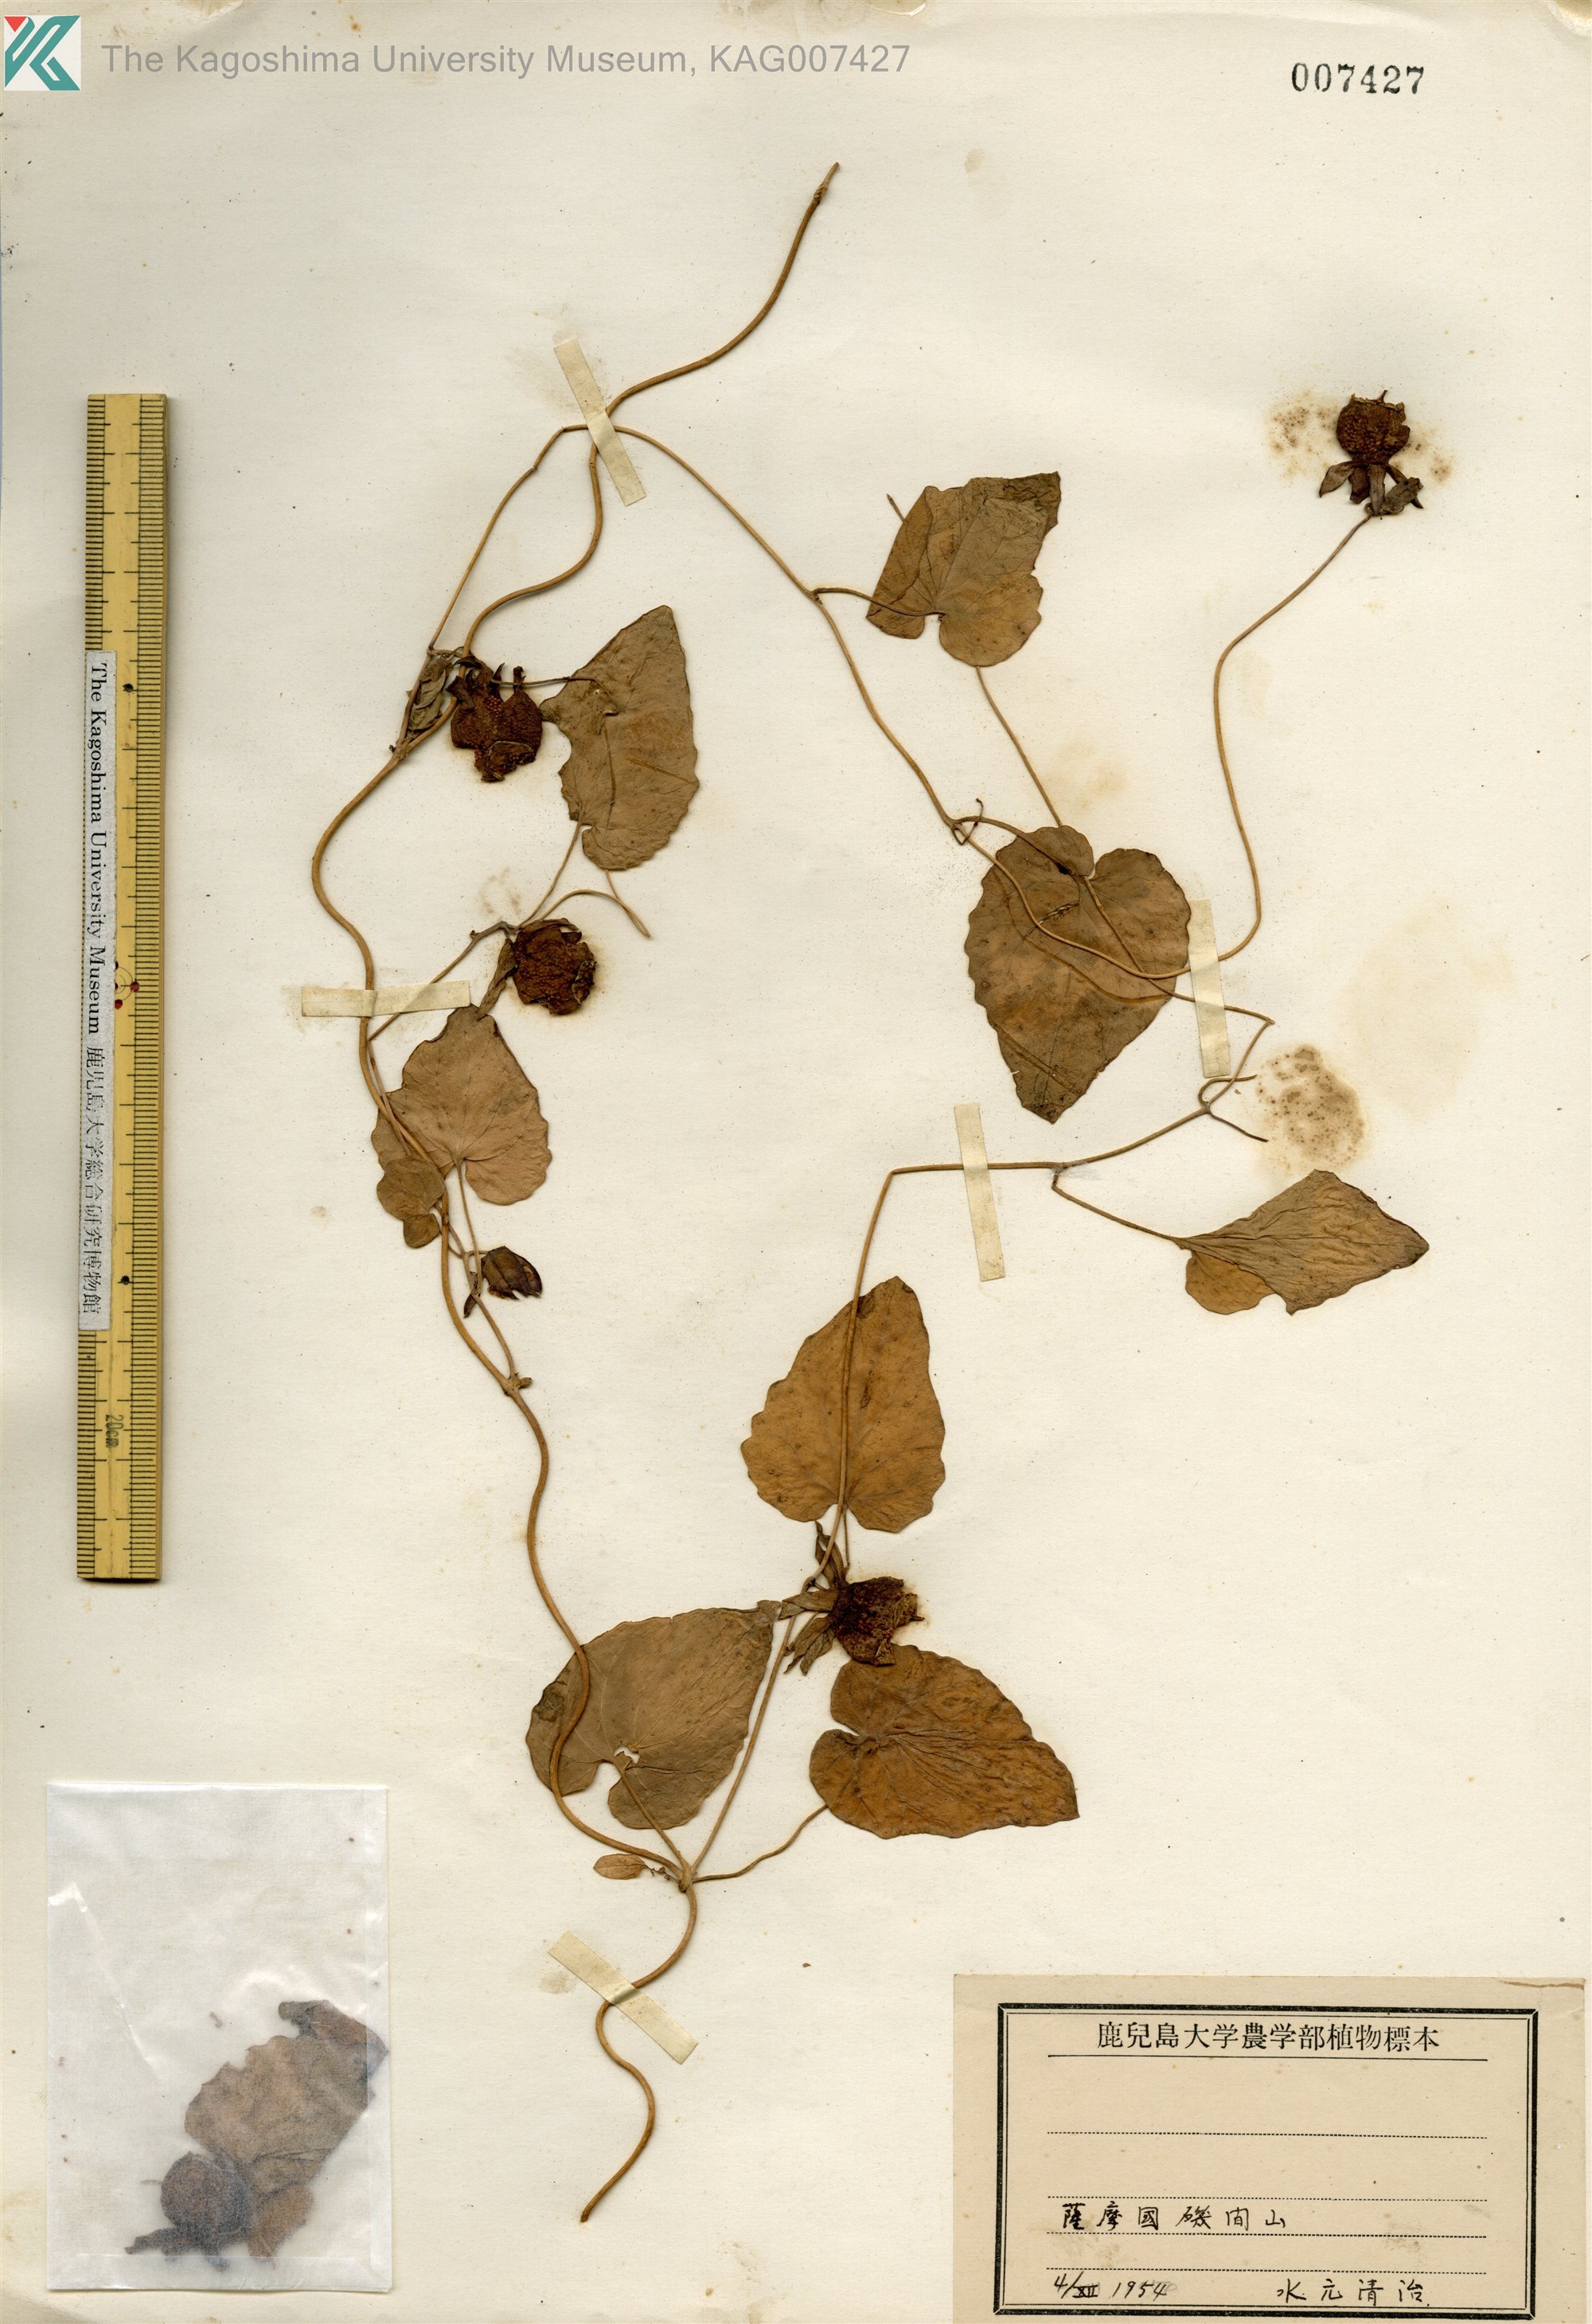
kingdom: Plantae
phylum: Tracheophyta
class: Magnoliopsida
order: Asterales
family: Campanulaceae
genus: Codonopsis
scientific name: Codonopsis javanica
